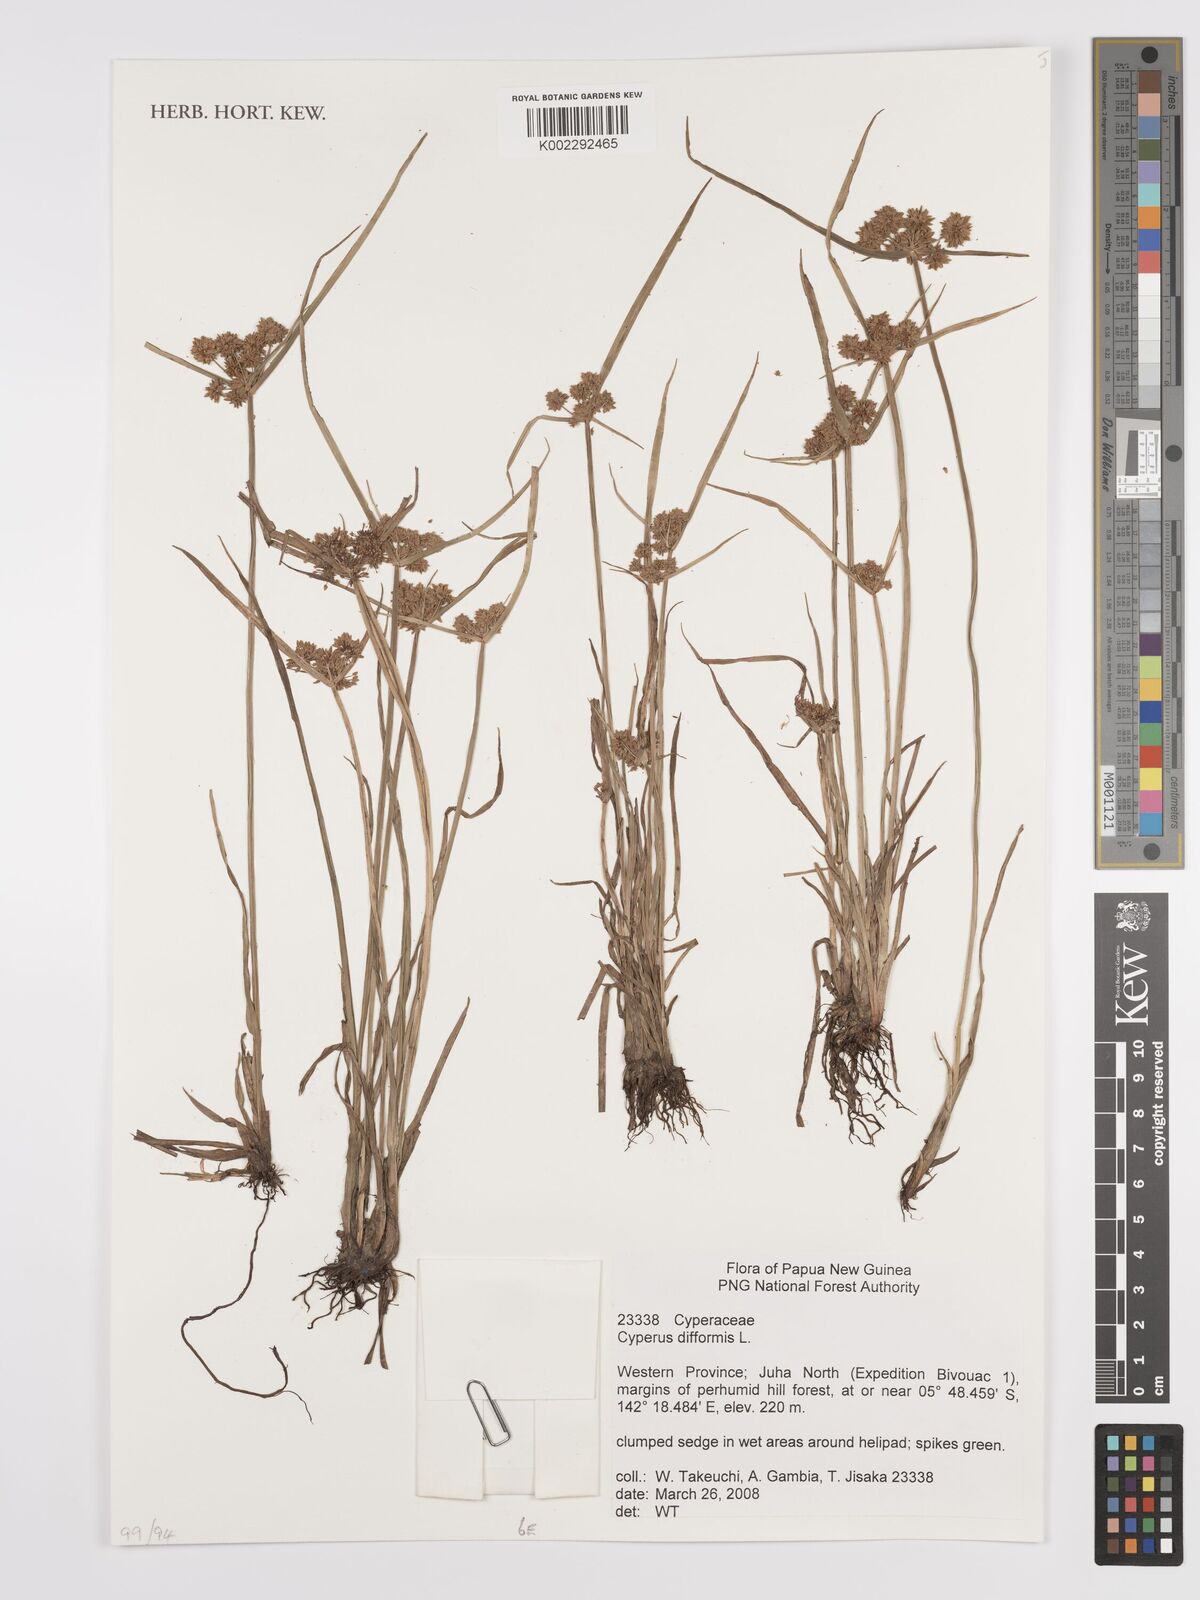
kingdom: Plantae
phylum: Tracheophyta
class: Liliopsida
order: Poales
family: Cyperaceae
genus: Cyperus
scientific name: Cyperus difformis
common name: Variable flatsedge
